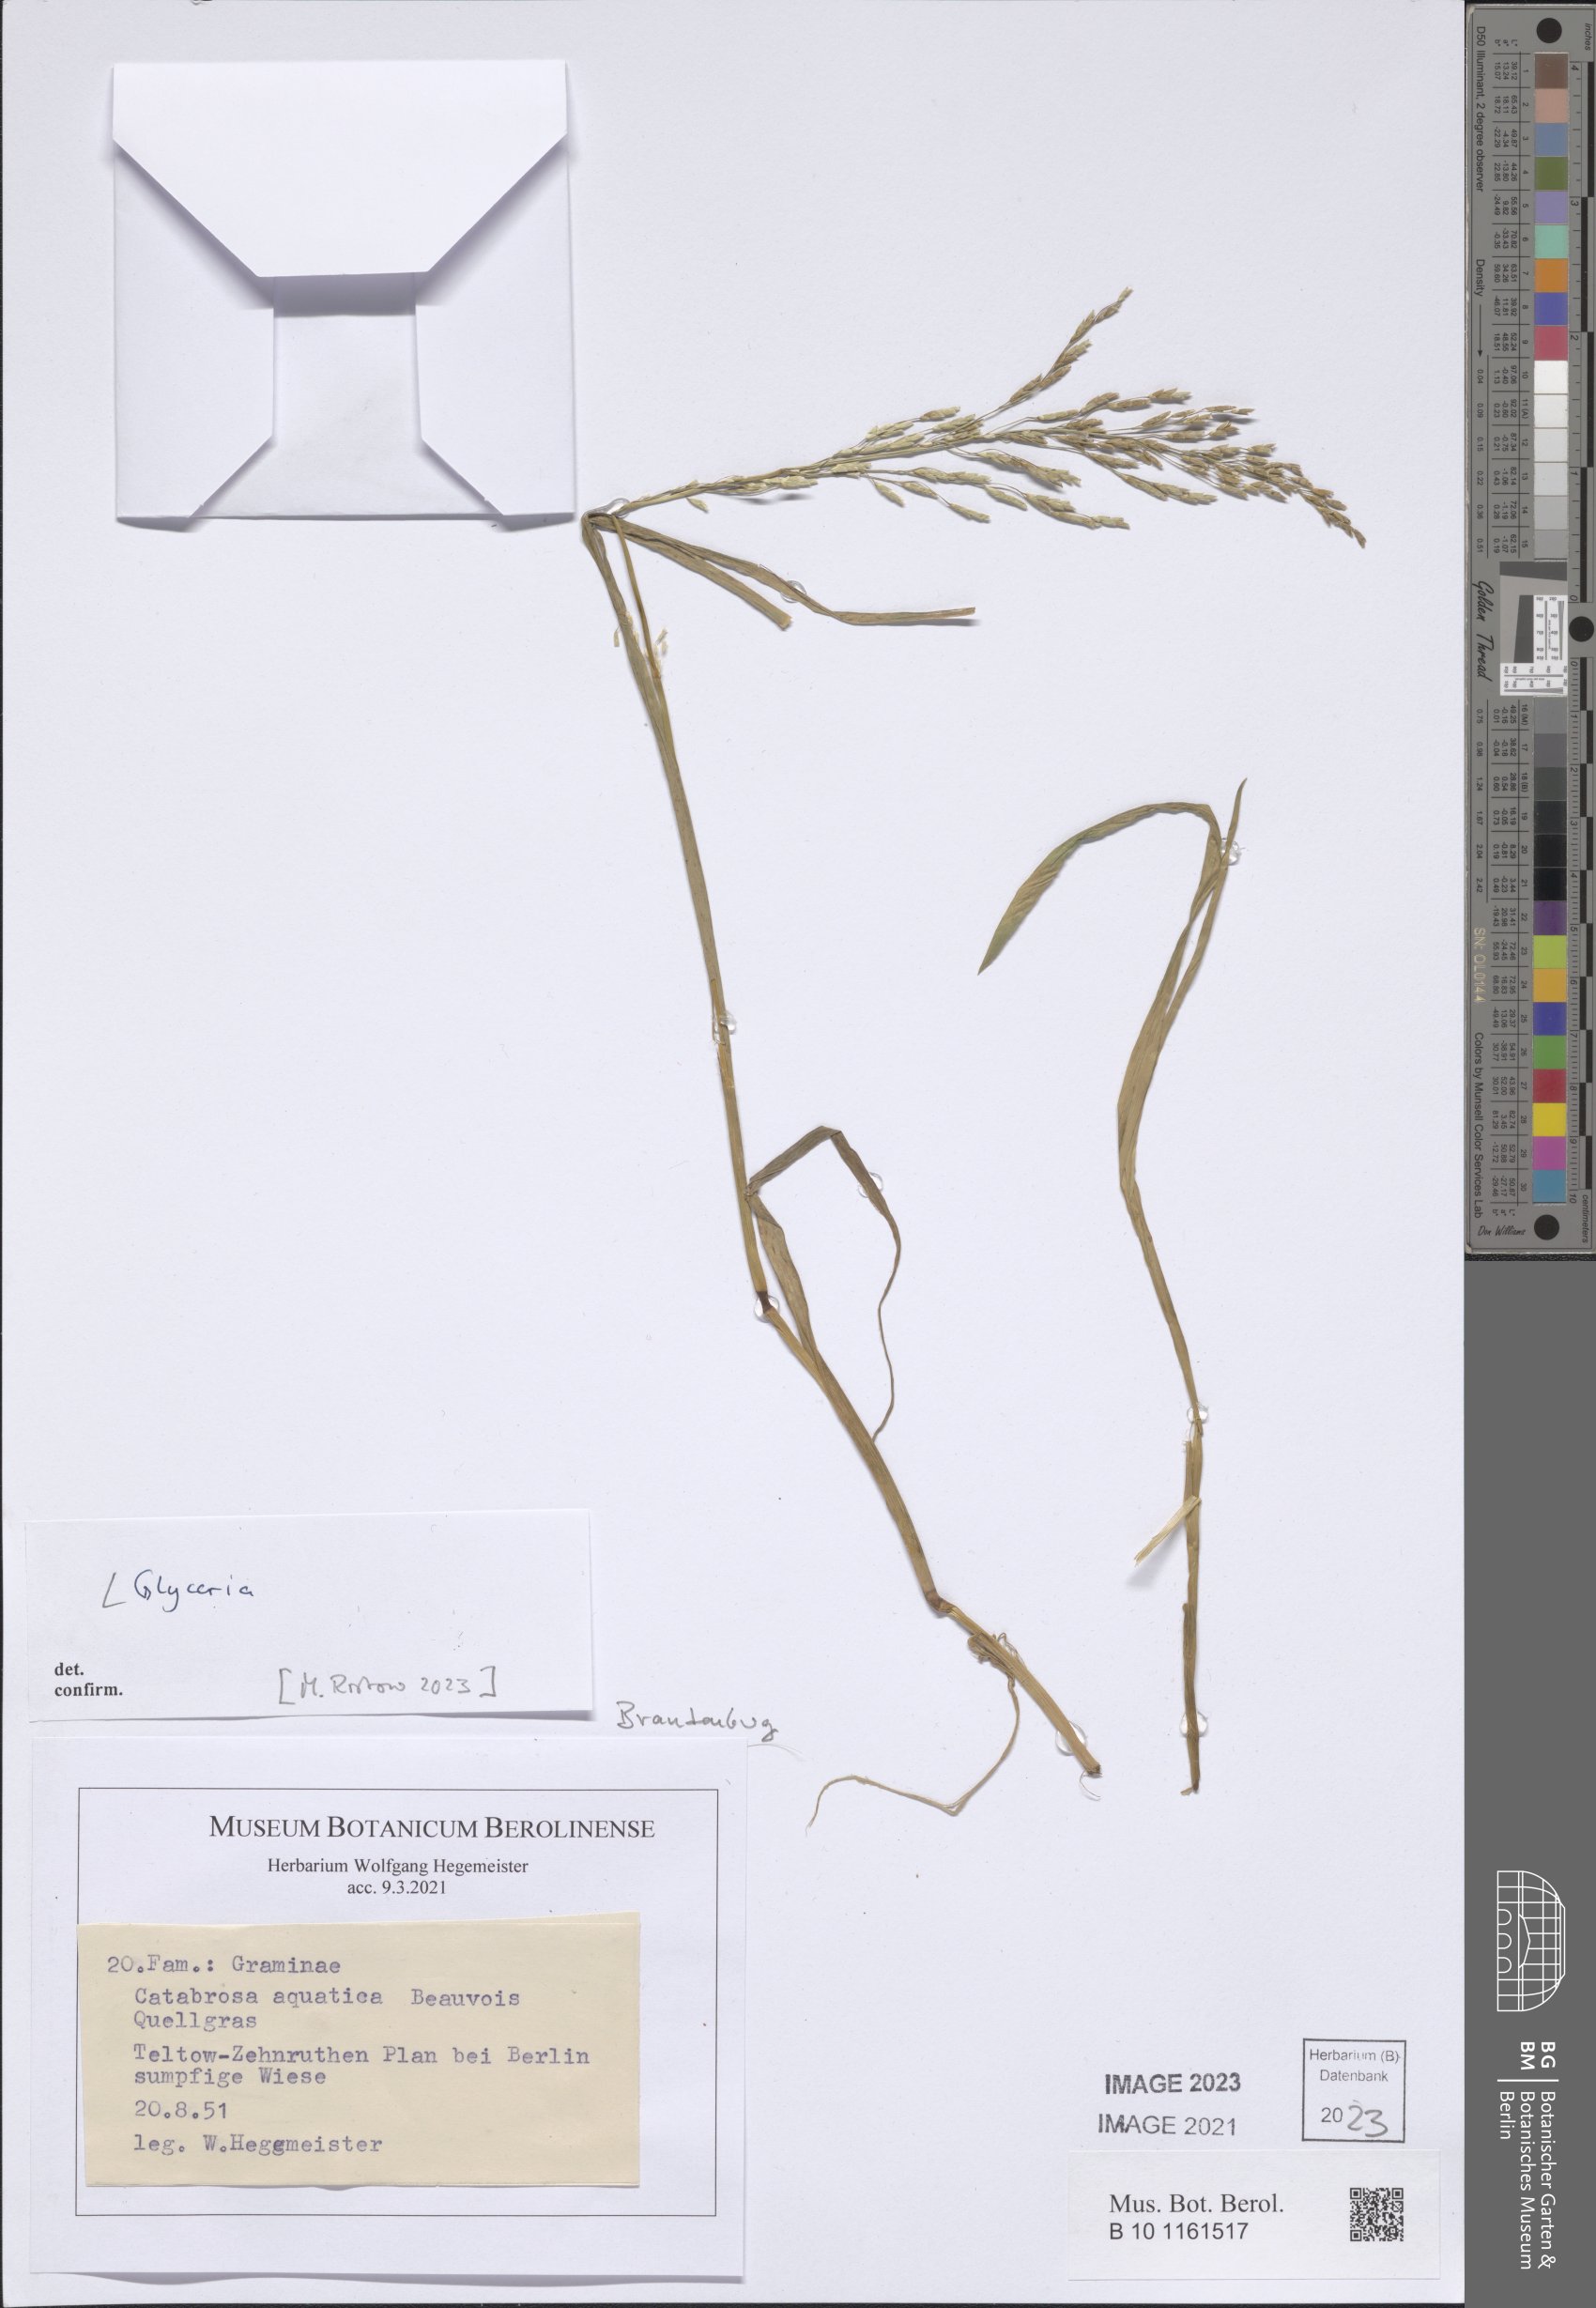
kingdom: Plantae
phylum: Tracheophyta
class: Liliopsida
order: Poales
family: Poaceae
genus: Glyceria
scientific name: Glyceria
